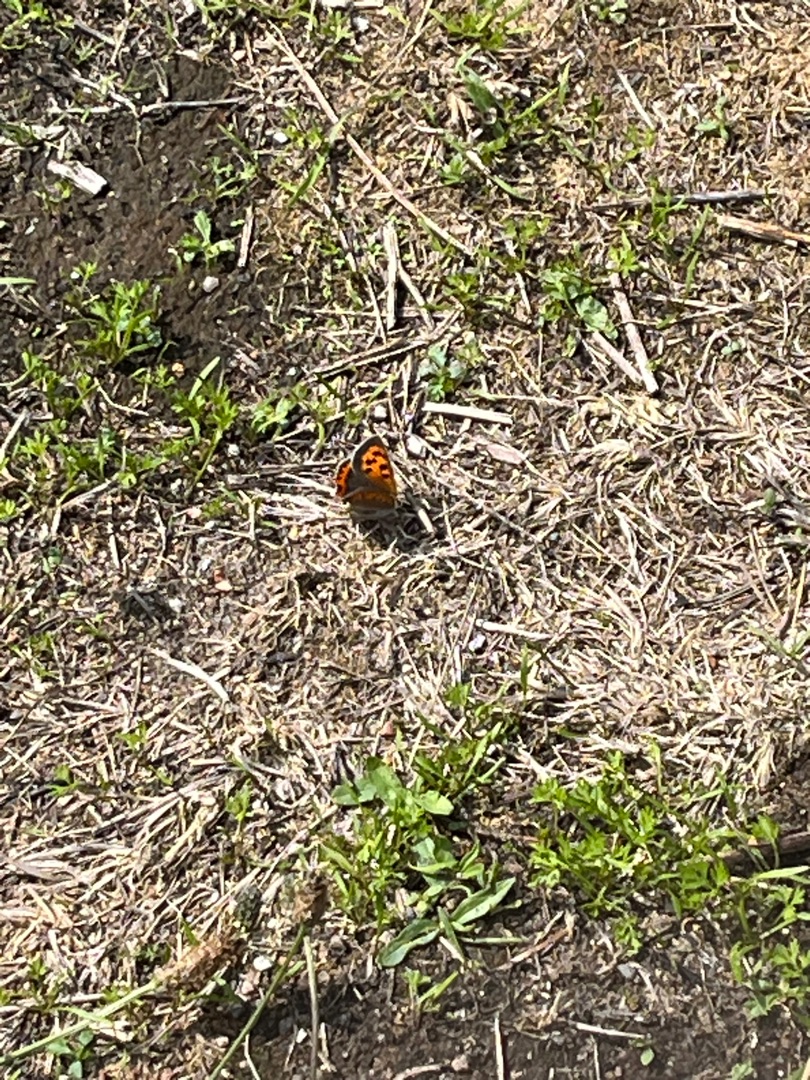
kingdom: Animalia
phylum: Arthropoda
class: Insecta
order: Lepidoptera
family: Lycaenidae
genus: Lycaena
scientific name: Lycaena phlaeas
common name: Lille ildfugl
